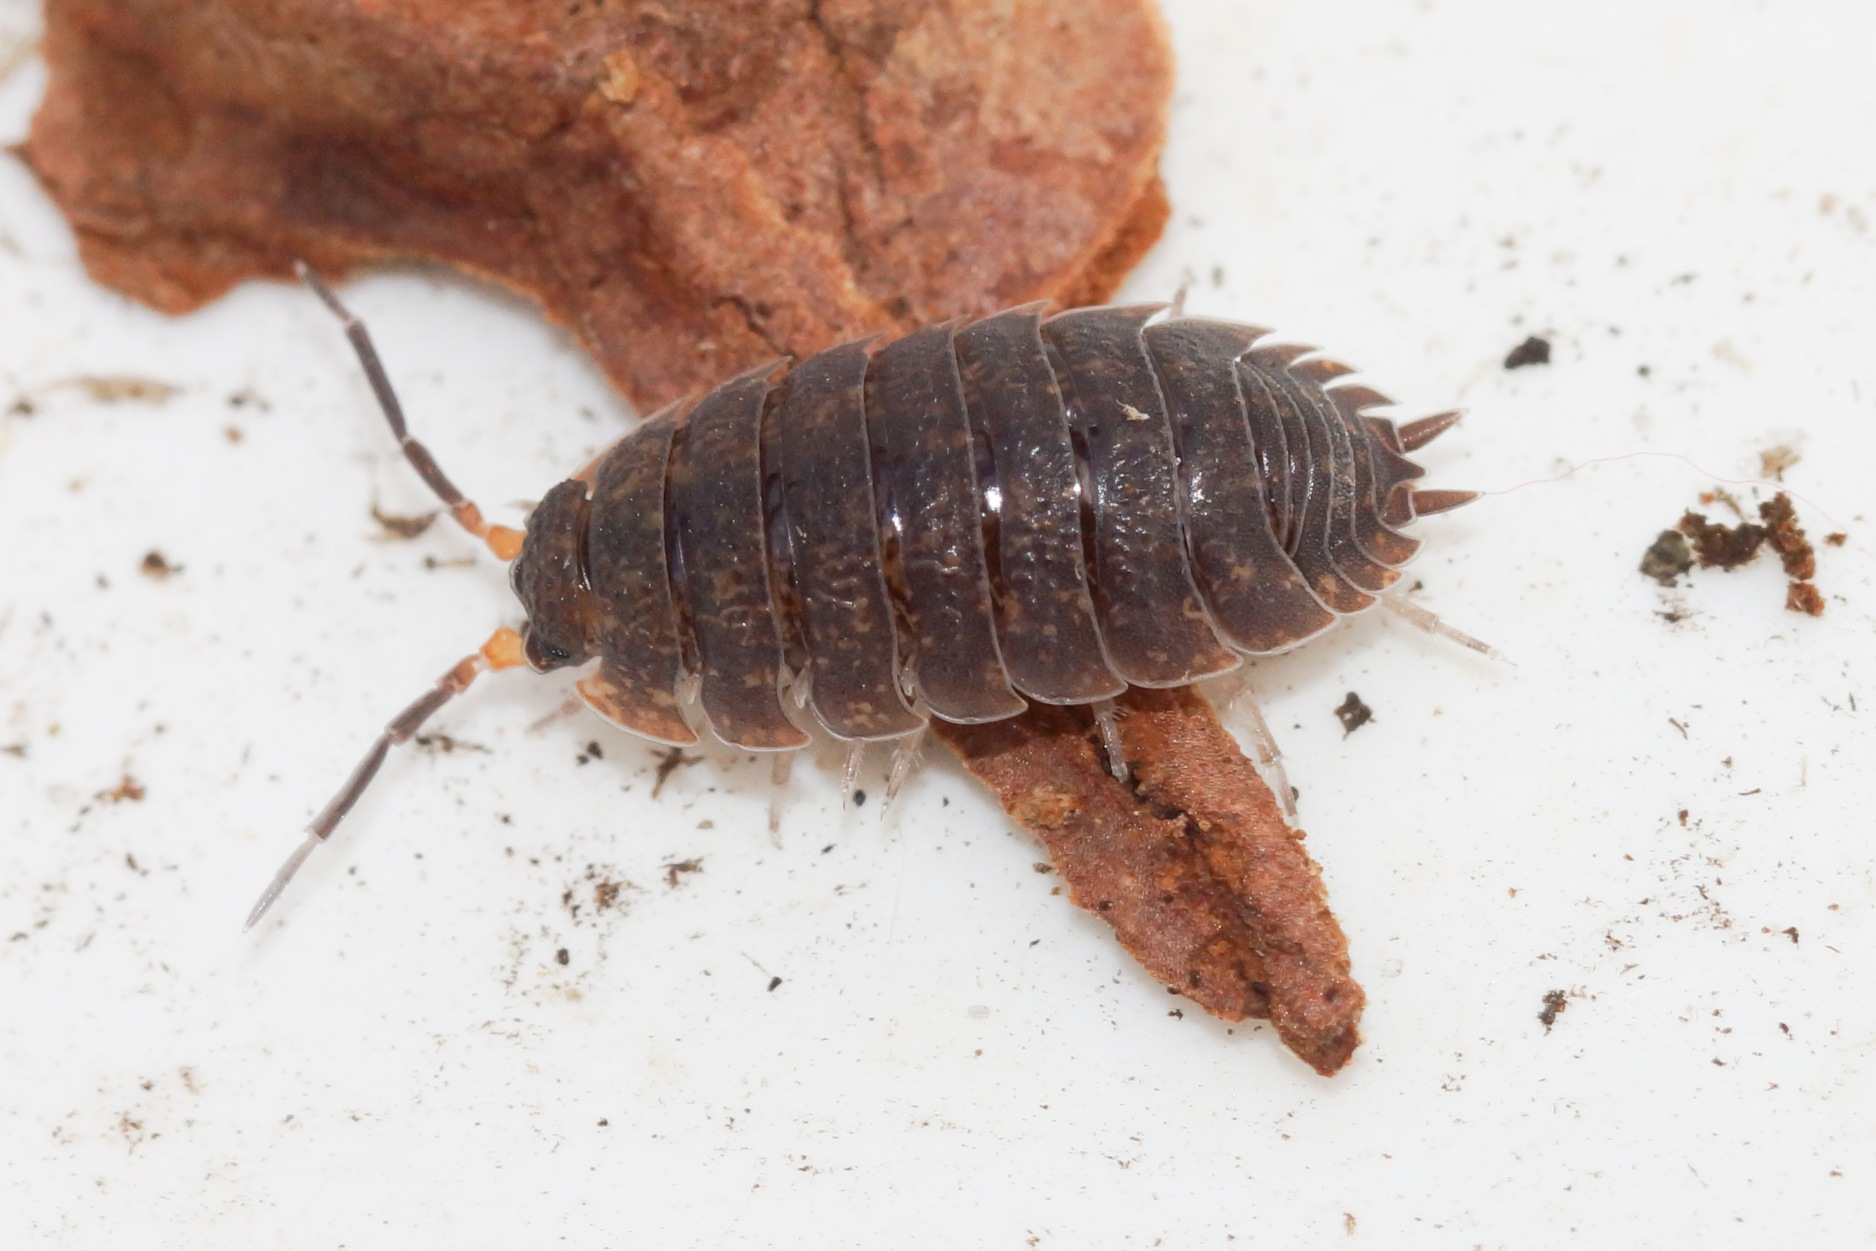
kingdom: Animalia
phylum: Arthropoda
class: Malacostraca
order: Isopoda
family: Porcellionidae
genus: Porcellio
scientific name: Porcellio scaber
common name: Grå bænkebider
